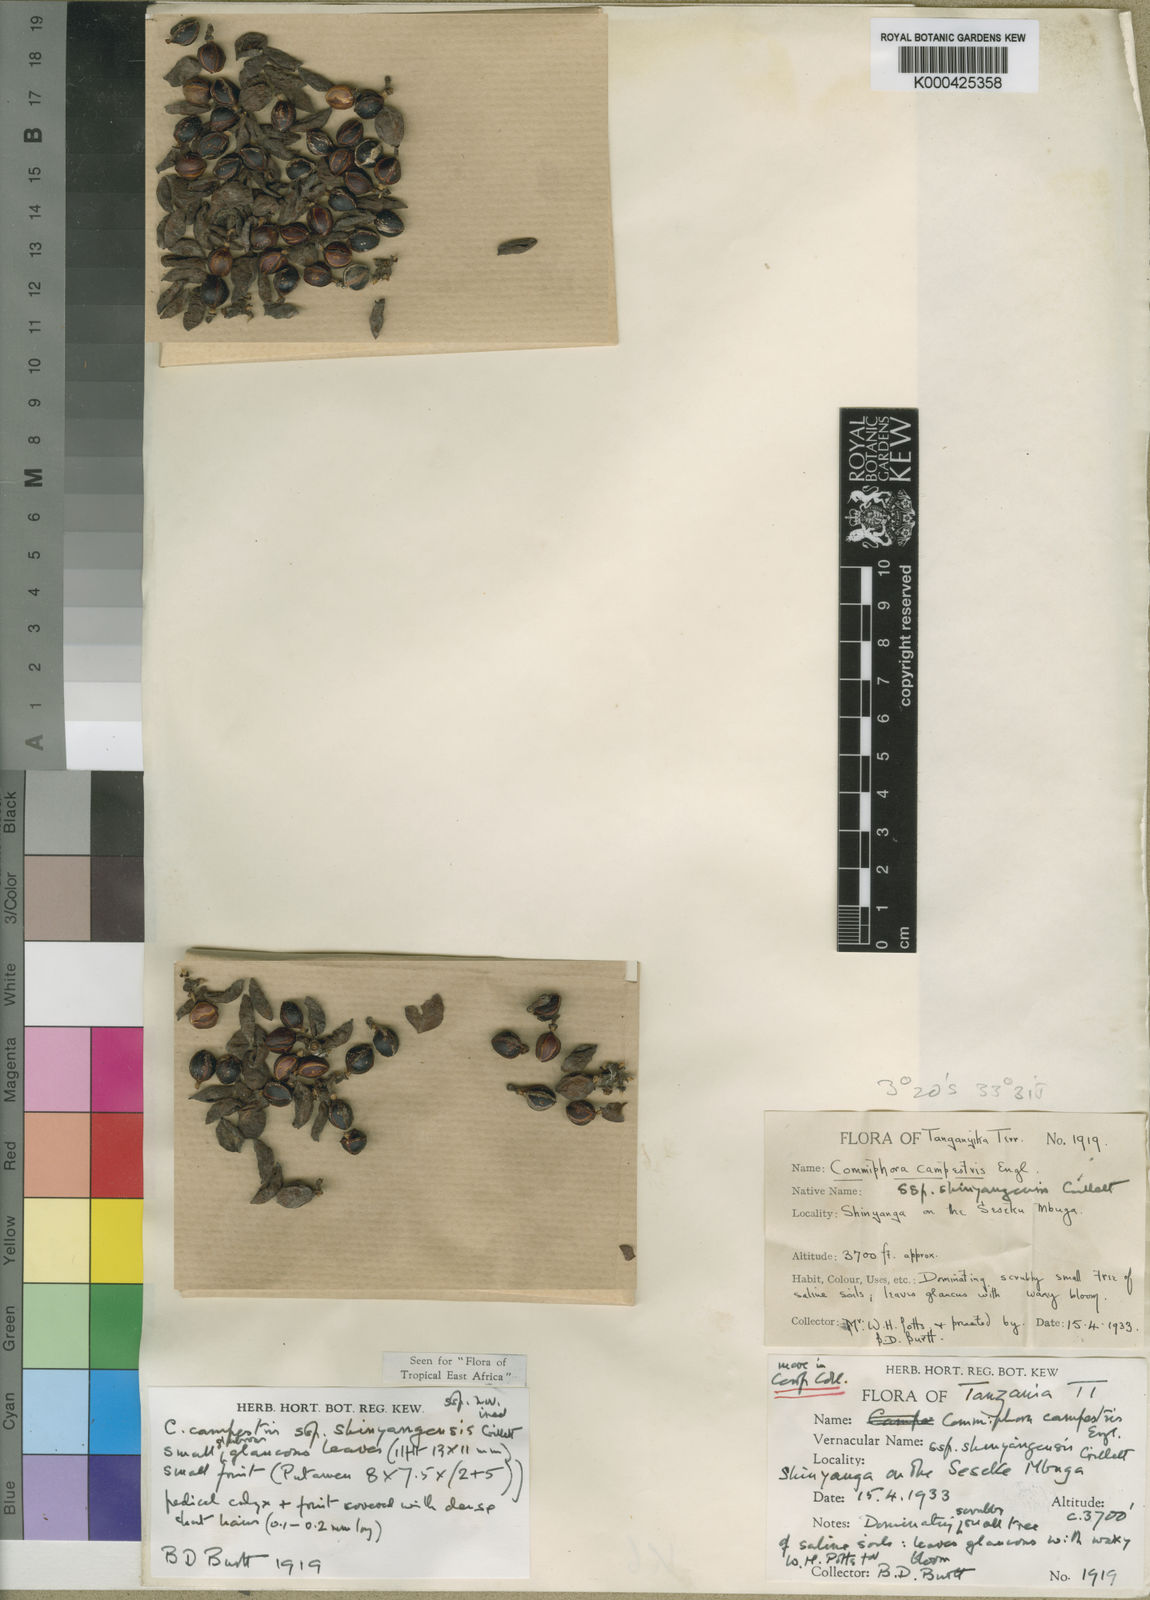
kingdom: Plantae
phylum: Tracheophyta
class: Magnoliopsida
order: Sapindales
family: Burseraceae
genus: Commiphora
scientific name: Commiphora campestris
